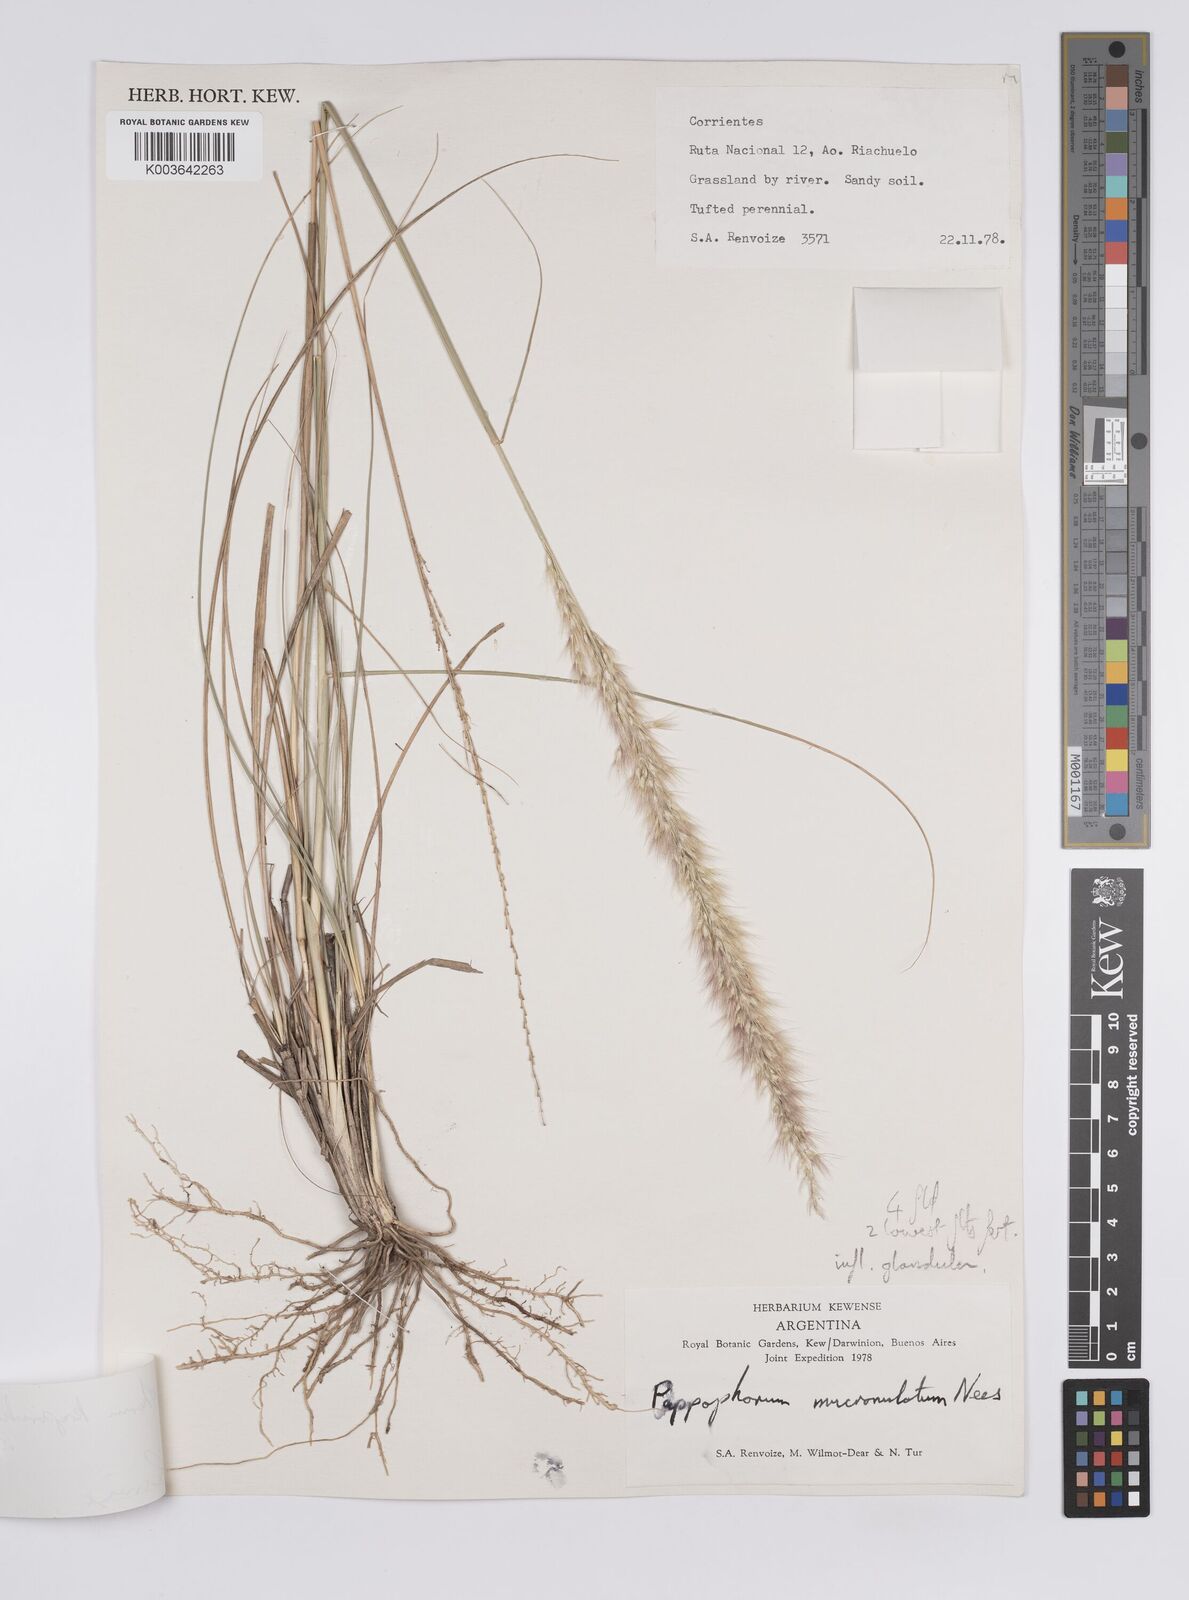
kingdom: Plantae
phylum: Tracheophyta
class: Liliopsida
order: Poales
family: Poaceae
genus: Pappophorum
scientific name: Pappophorum krapovickasii
